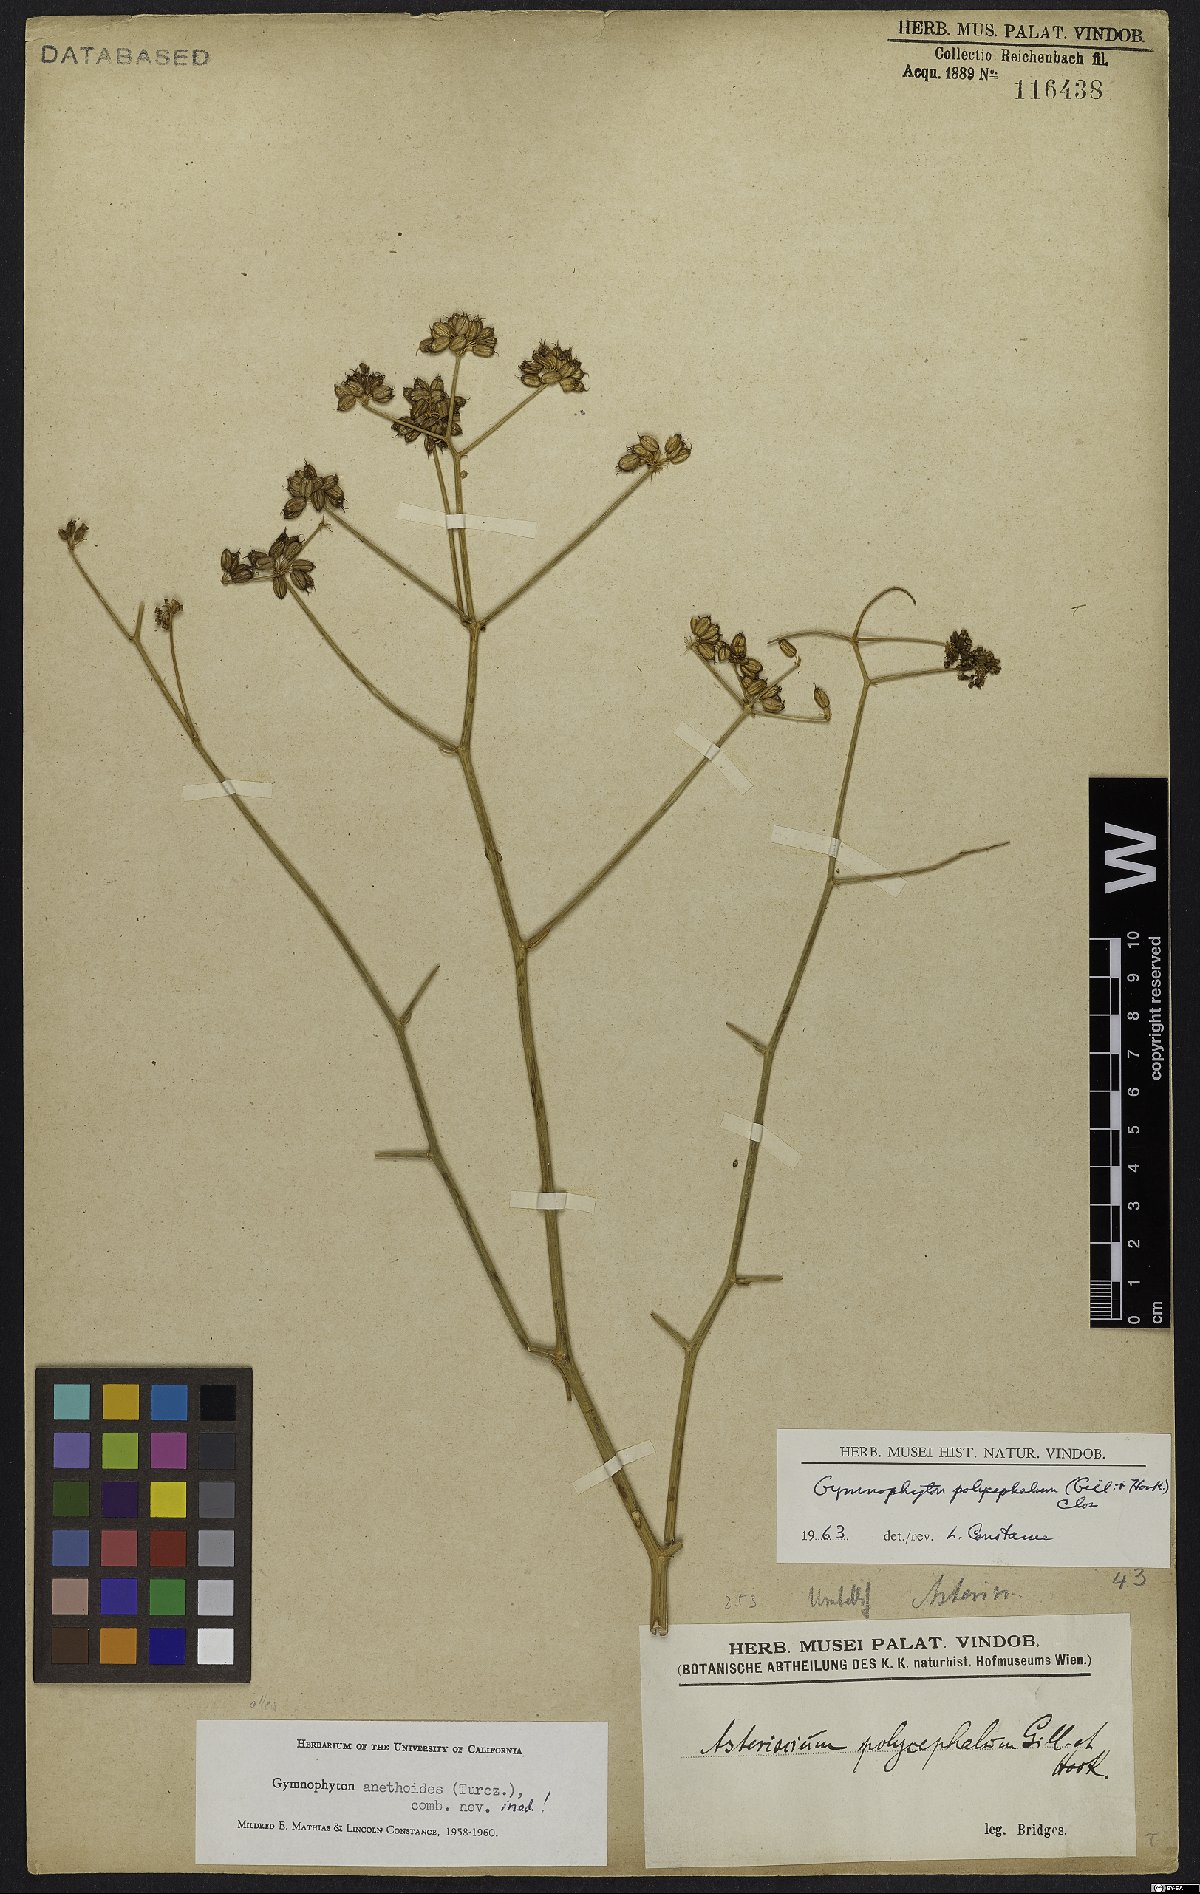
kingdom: Plantae
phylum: Tracheophyta
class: Magnoliopsida
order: Apiales
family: Apiaceae
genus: Gymnophyton
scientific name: Gymnophyton polycephalum
